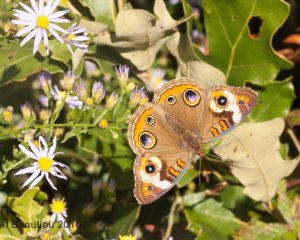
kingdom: Animalia
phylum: Arthropoda
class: Insecta
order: Lepidoptera
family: Nymphalidae
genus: Junonia
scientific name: Junonia coenia
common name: Common Buckeye
